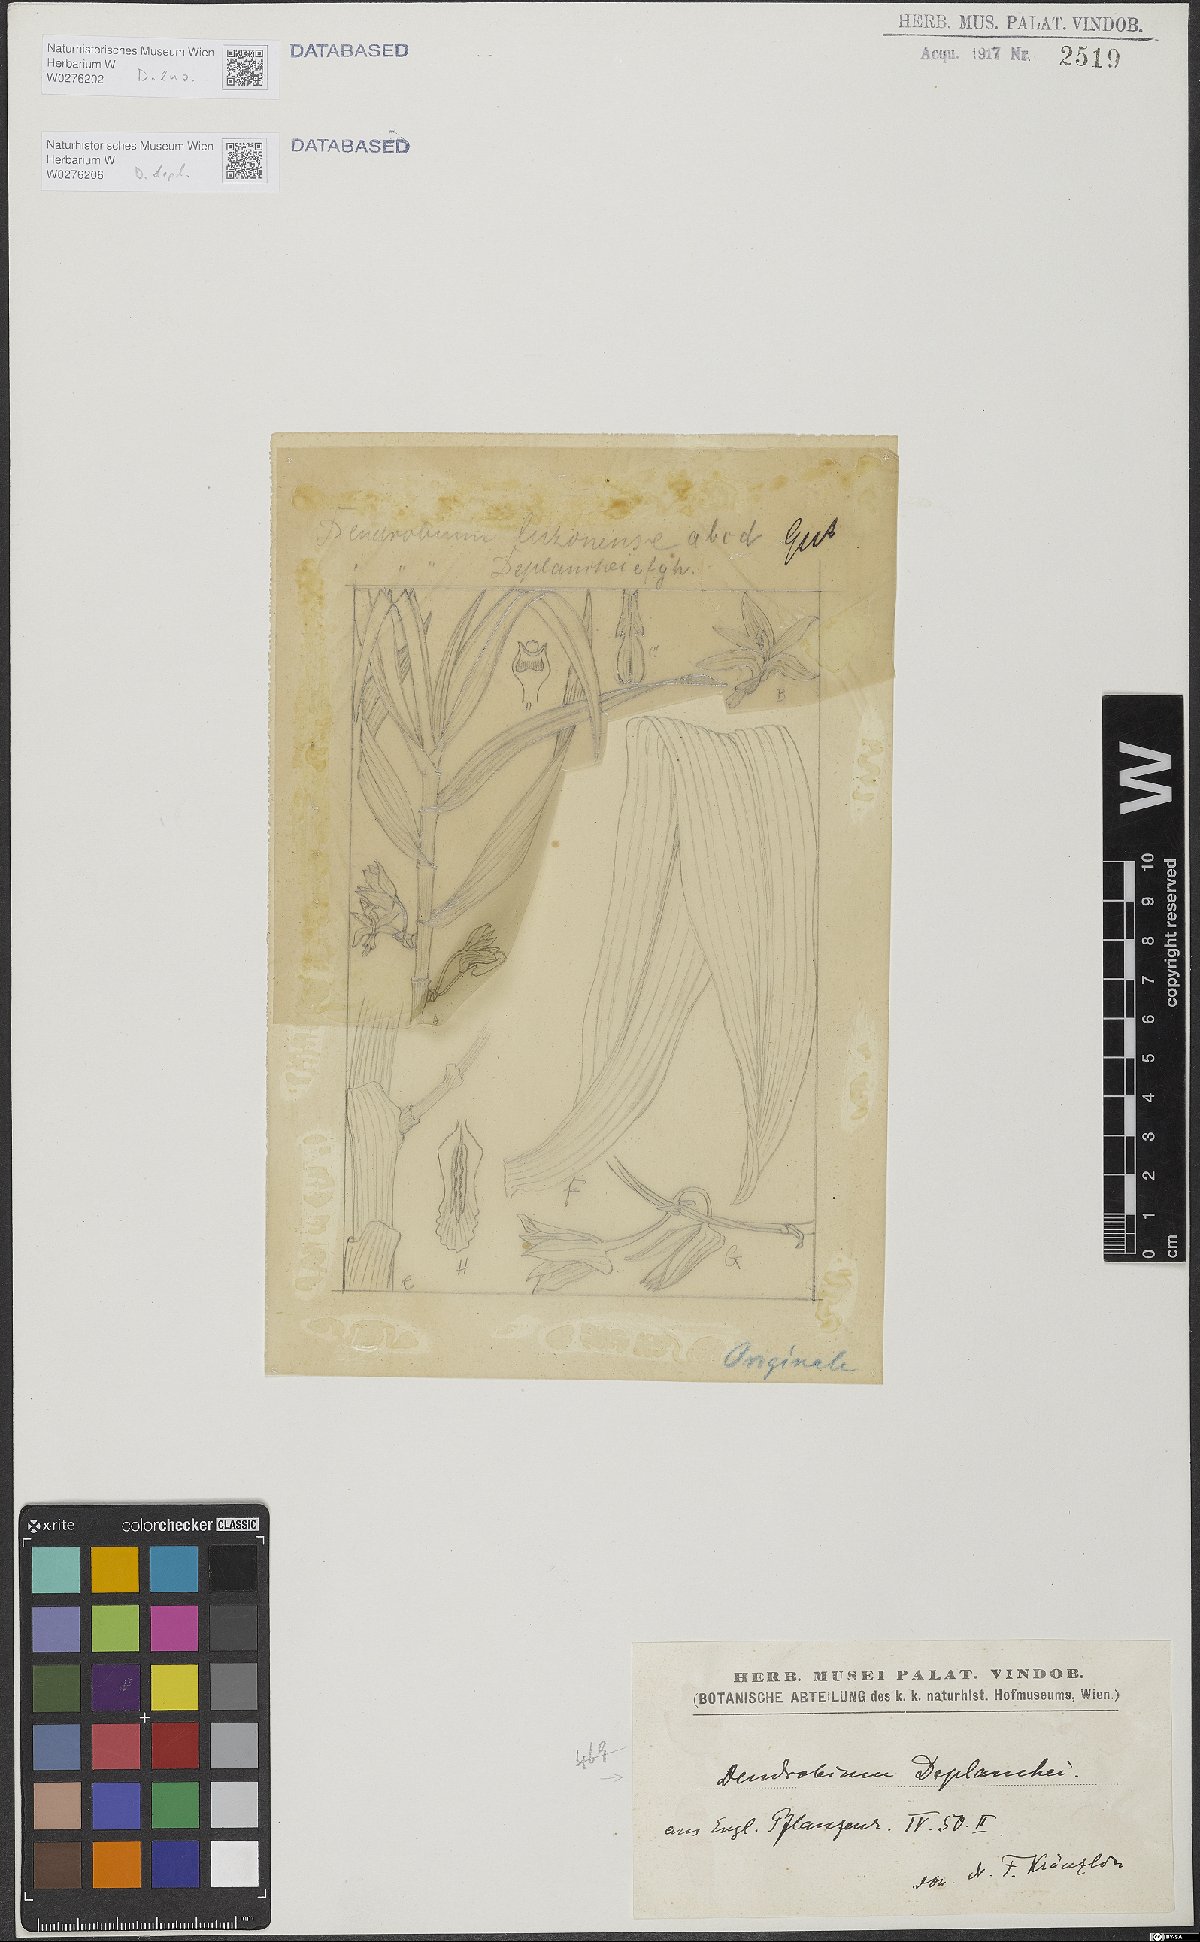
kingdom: Plantae
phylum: Tracheophyta
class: Liliopsida
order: Asparagales
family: Orchidaceae
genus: Dendrobium
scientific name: Dendrobium luzonense
